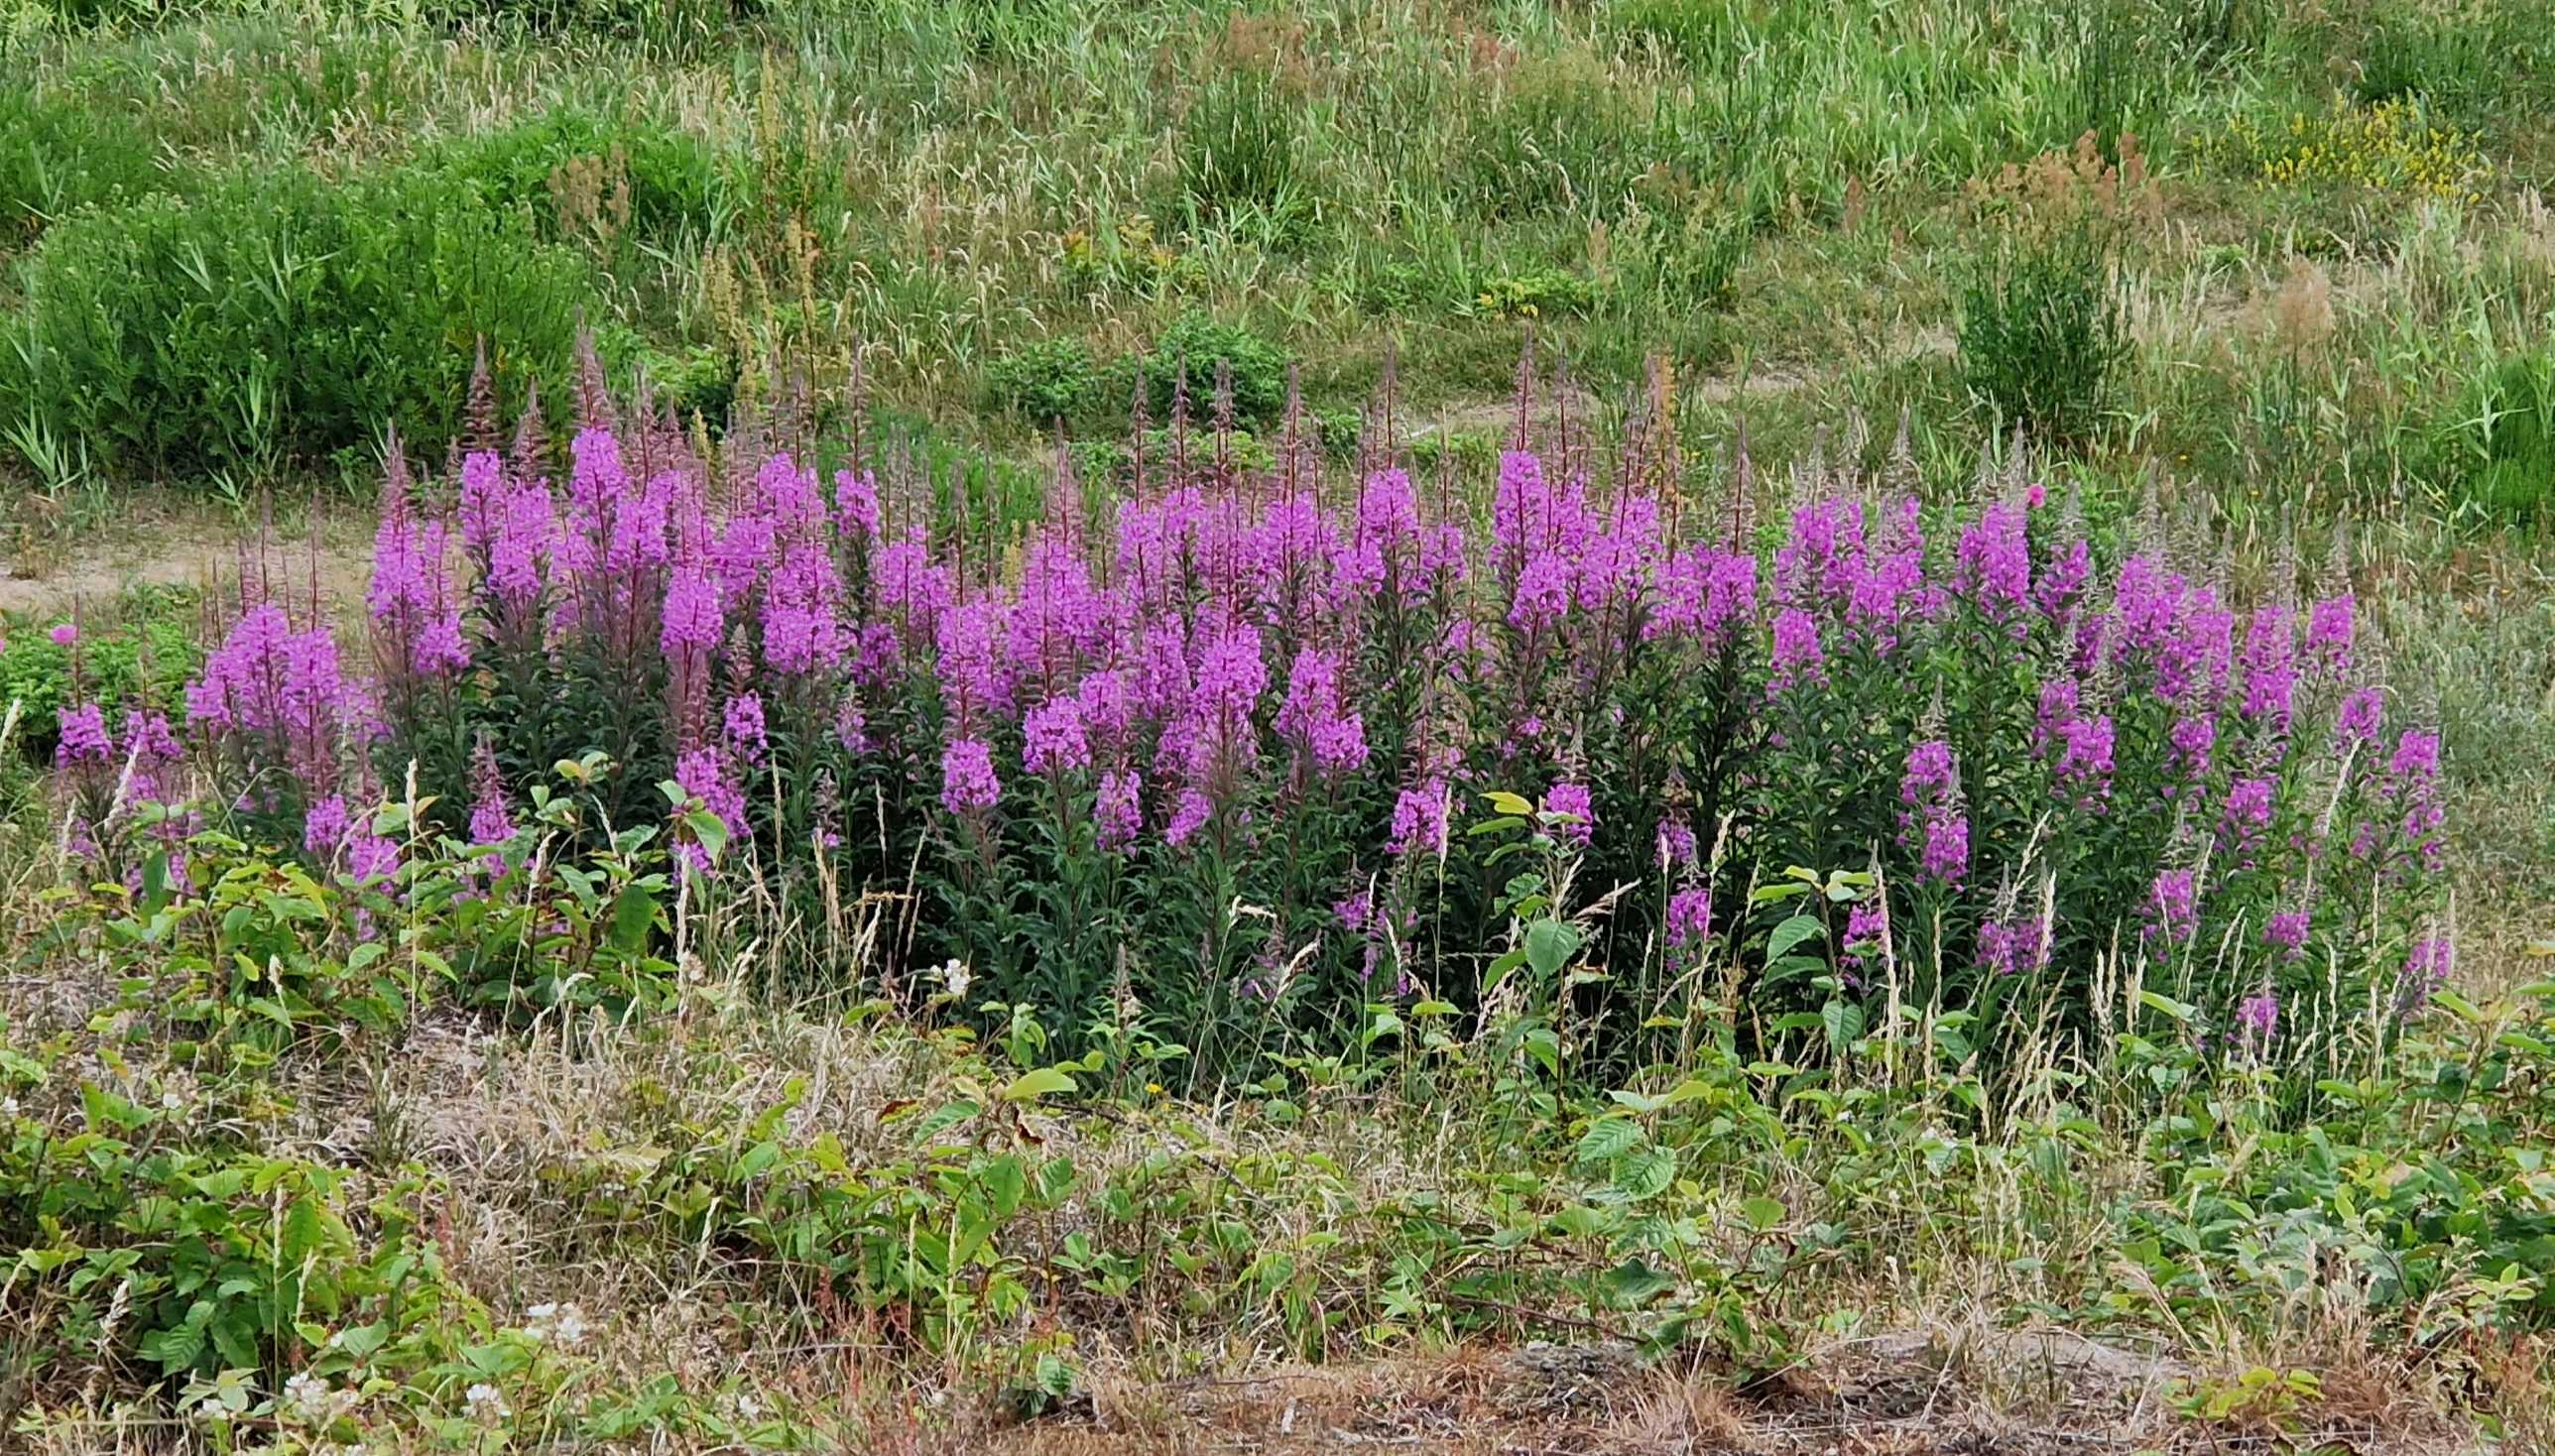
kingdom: Plantae
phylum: Tracheophyta
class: Magnoliopsida
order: Myrtales
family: Onagraceae
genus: Chamaenerion
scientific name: Chamaenerion angustifolium
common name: Gederams
